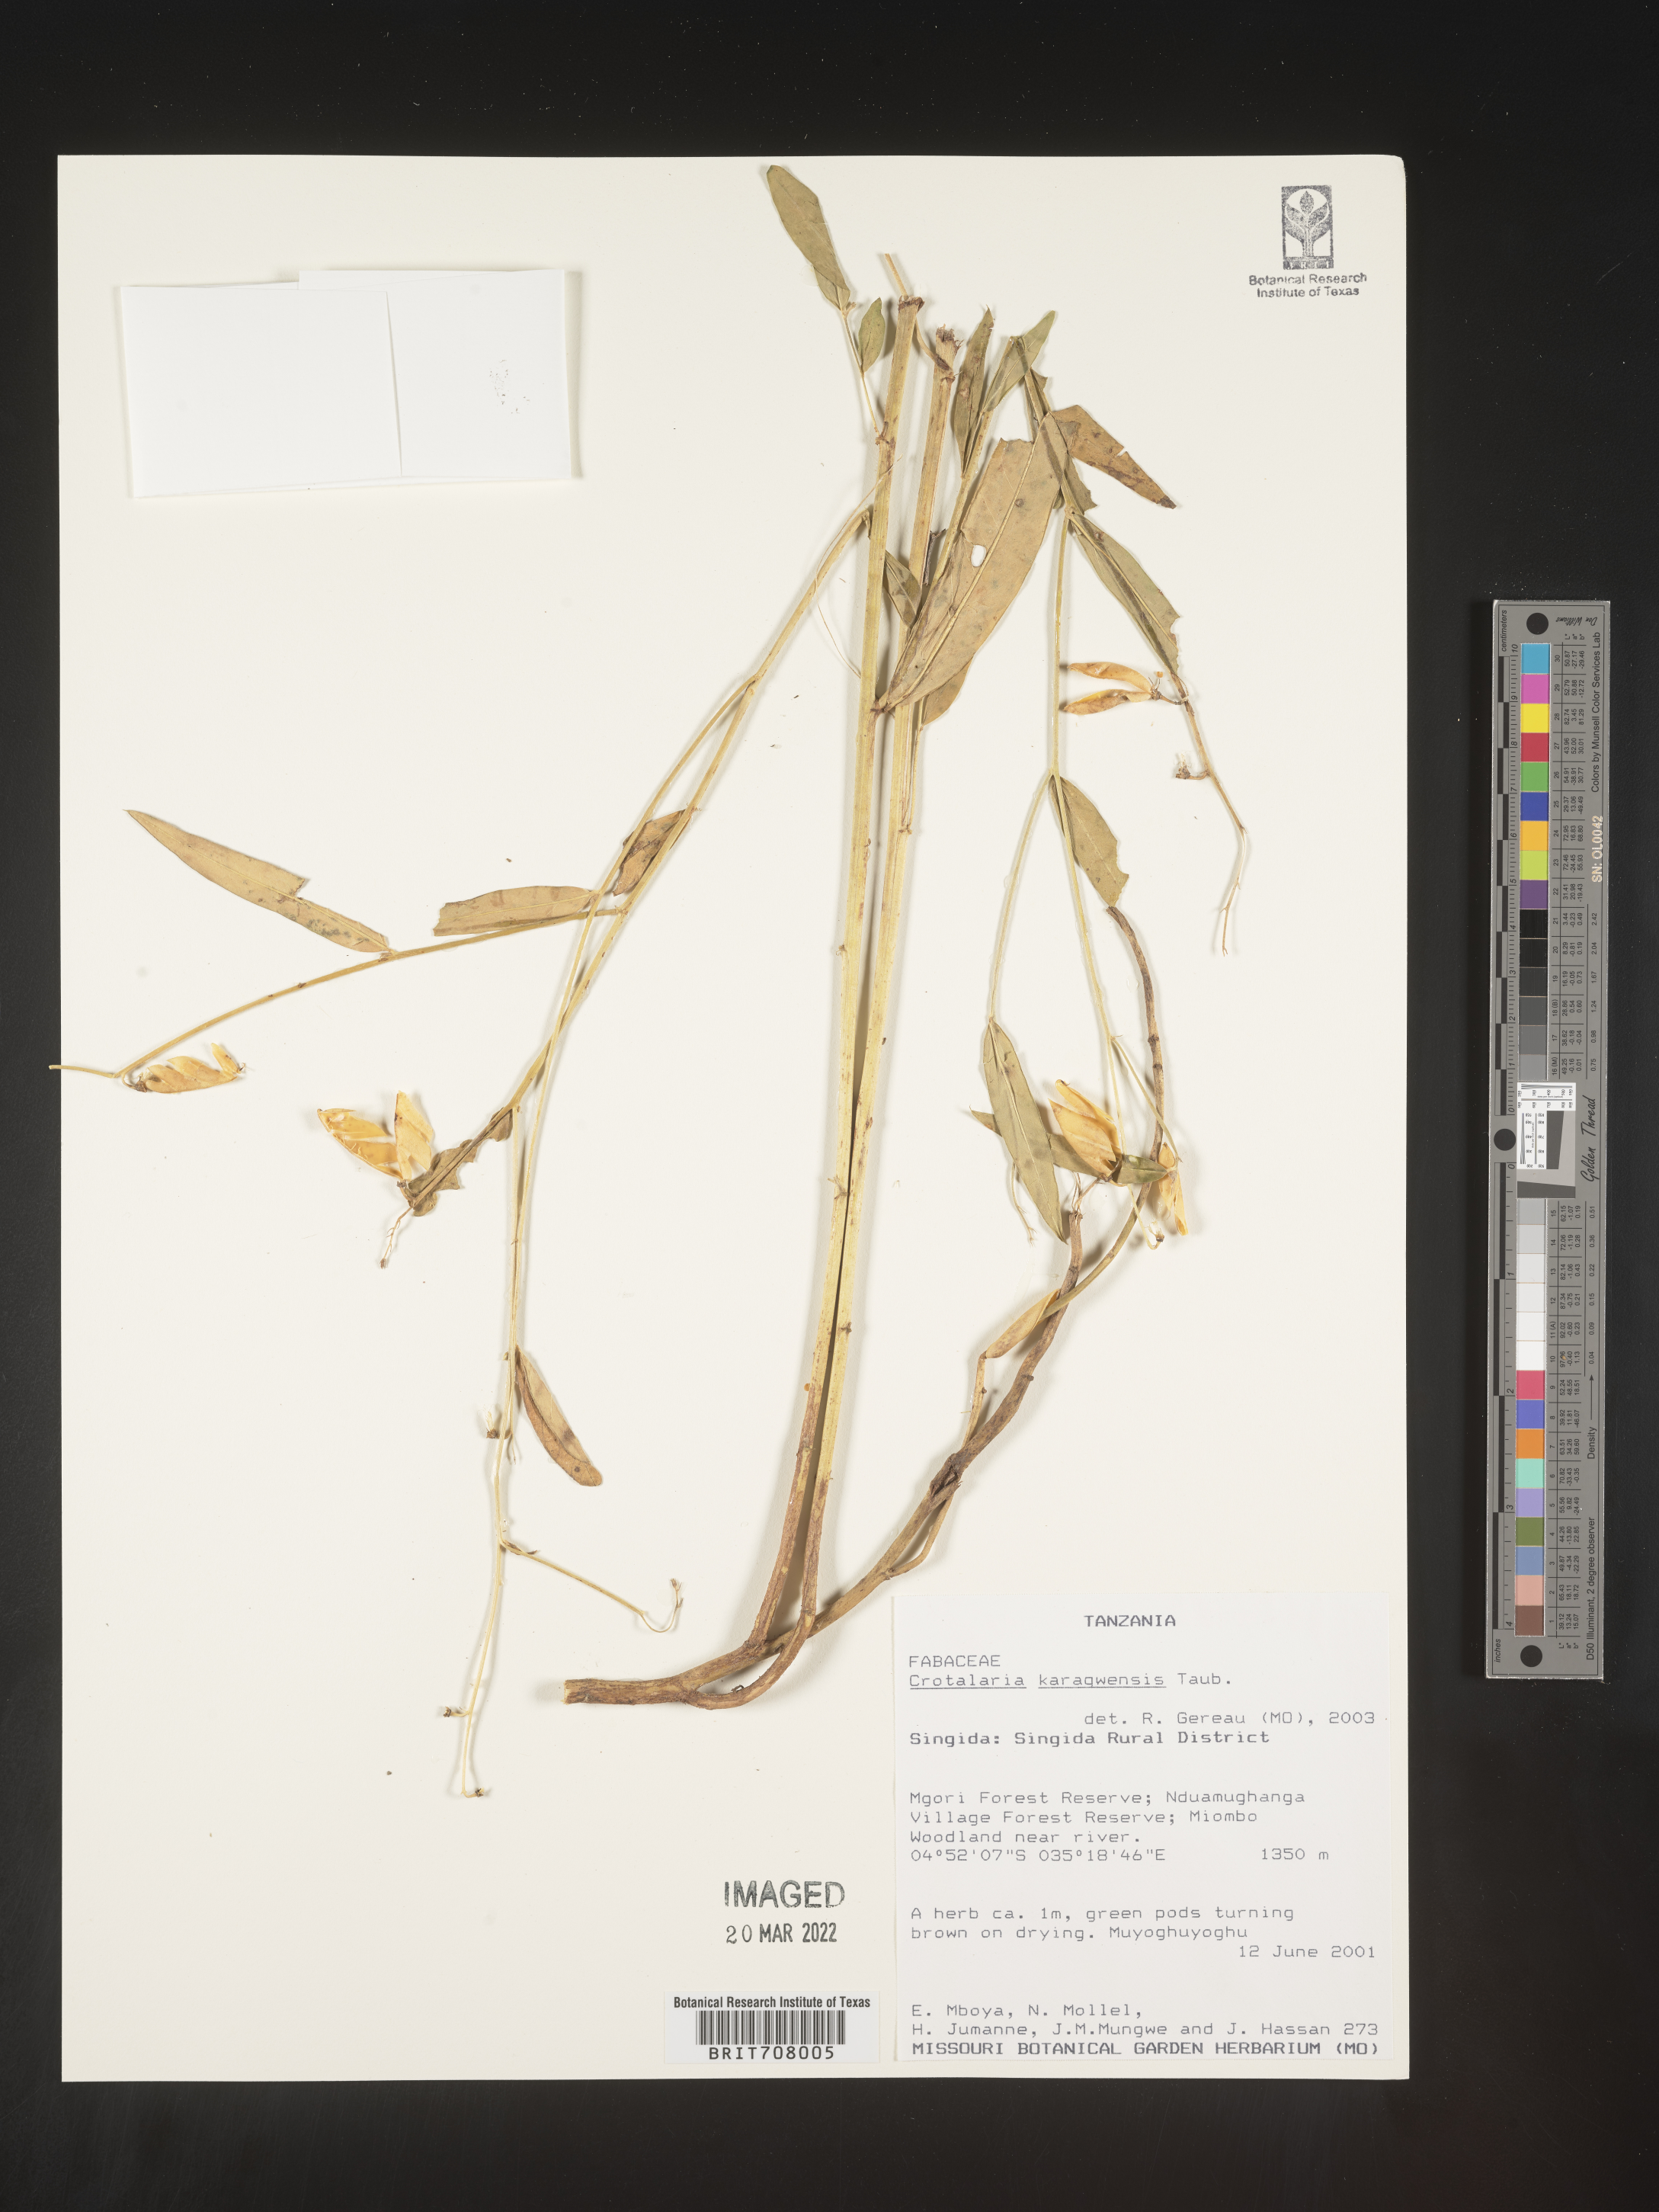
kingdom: Plantae
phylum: Tracheophyta
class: Magnoliopsida
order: Fabales
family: Fabaceae
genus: Crotalaria
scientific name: Crotalaria
